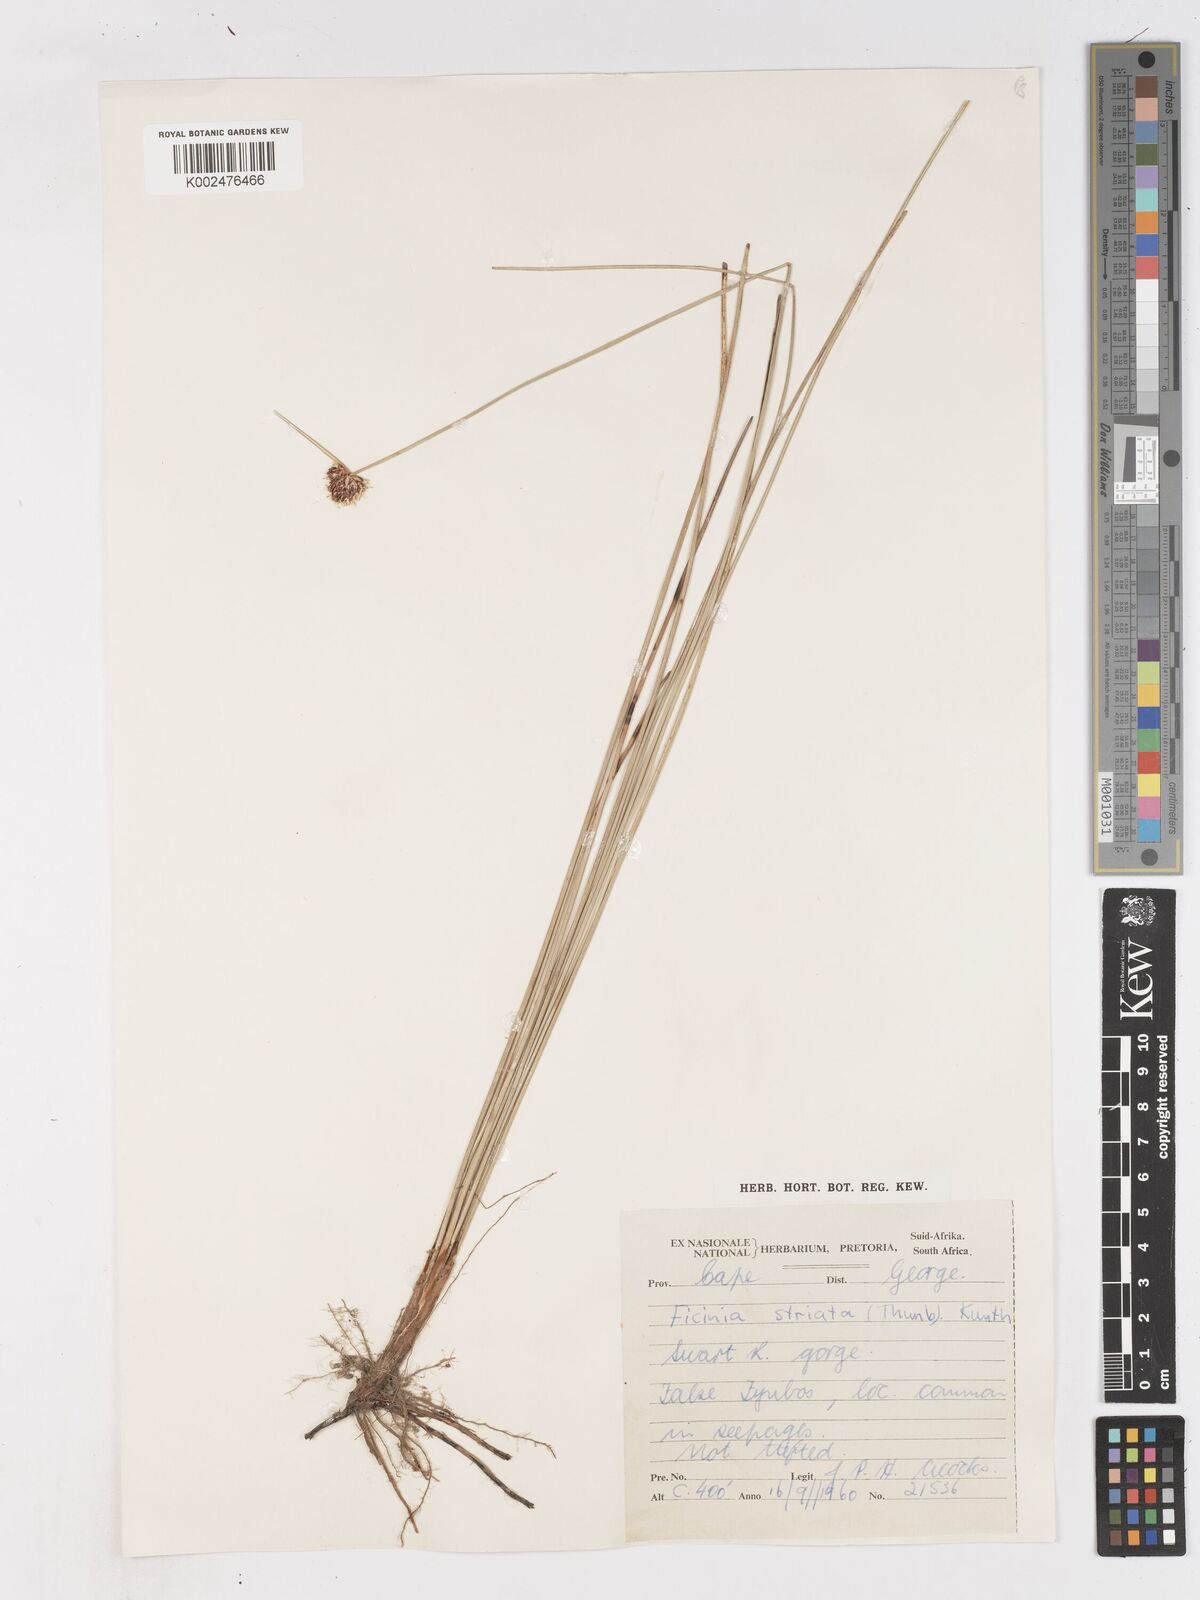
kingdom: Plantae
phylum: Tracheophyta
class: Liliopsida
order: Poales
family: Cyperaceae
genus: Ficinia
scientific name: Ficinia indica
